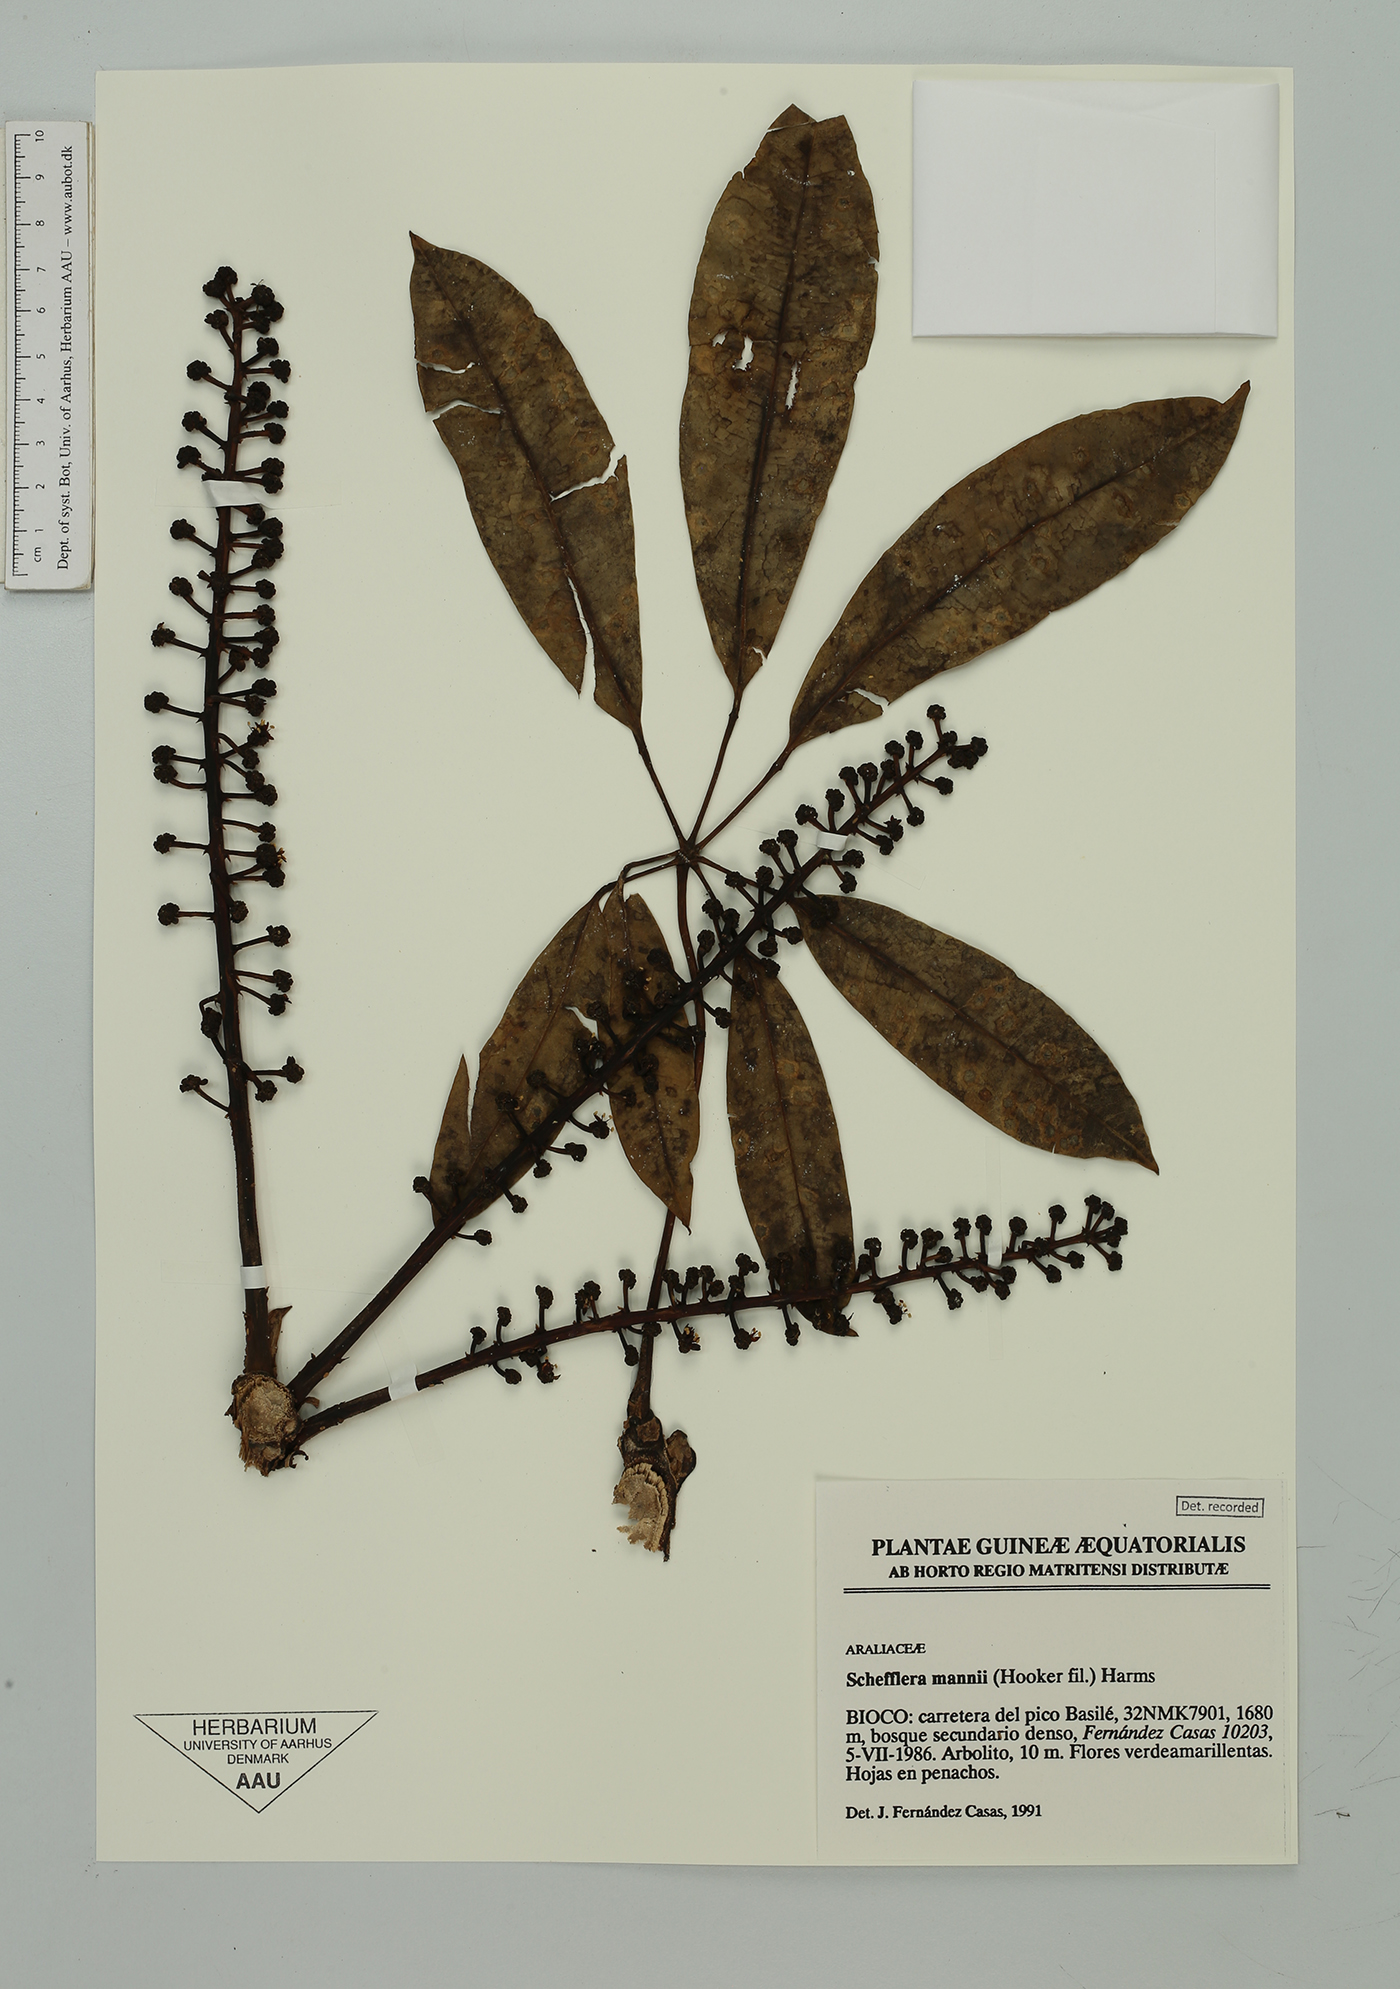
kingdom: Plantae
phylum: Tracheophyta
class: Magnoliopsida
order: Apiales
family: Araliaceae
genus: Astropanax
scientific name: Astropanax mannii
